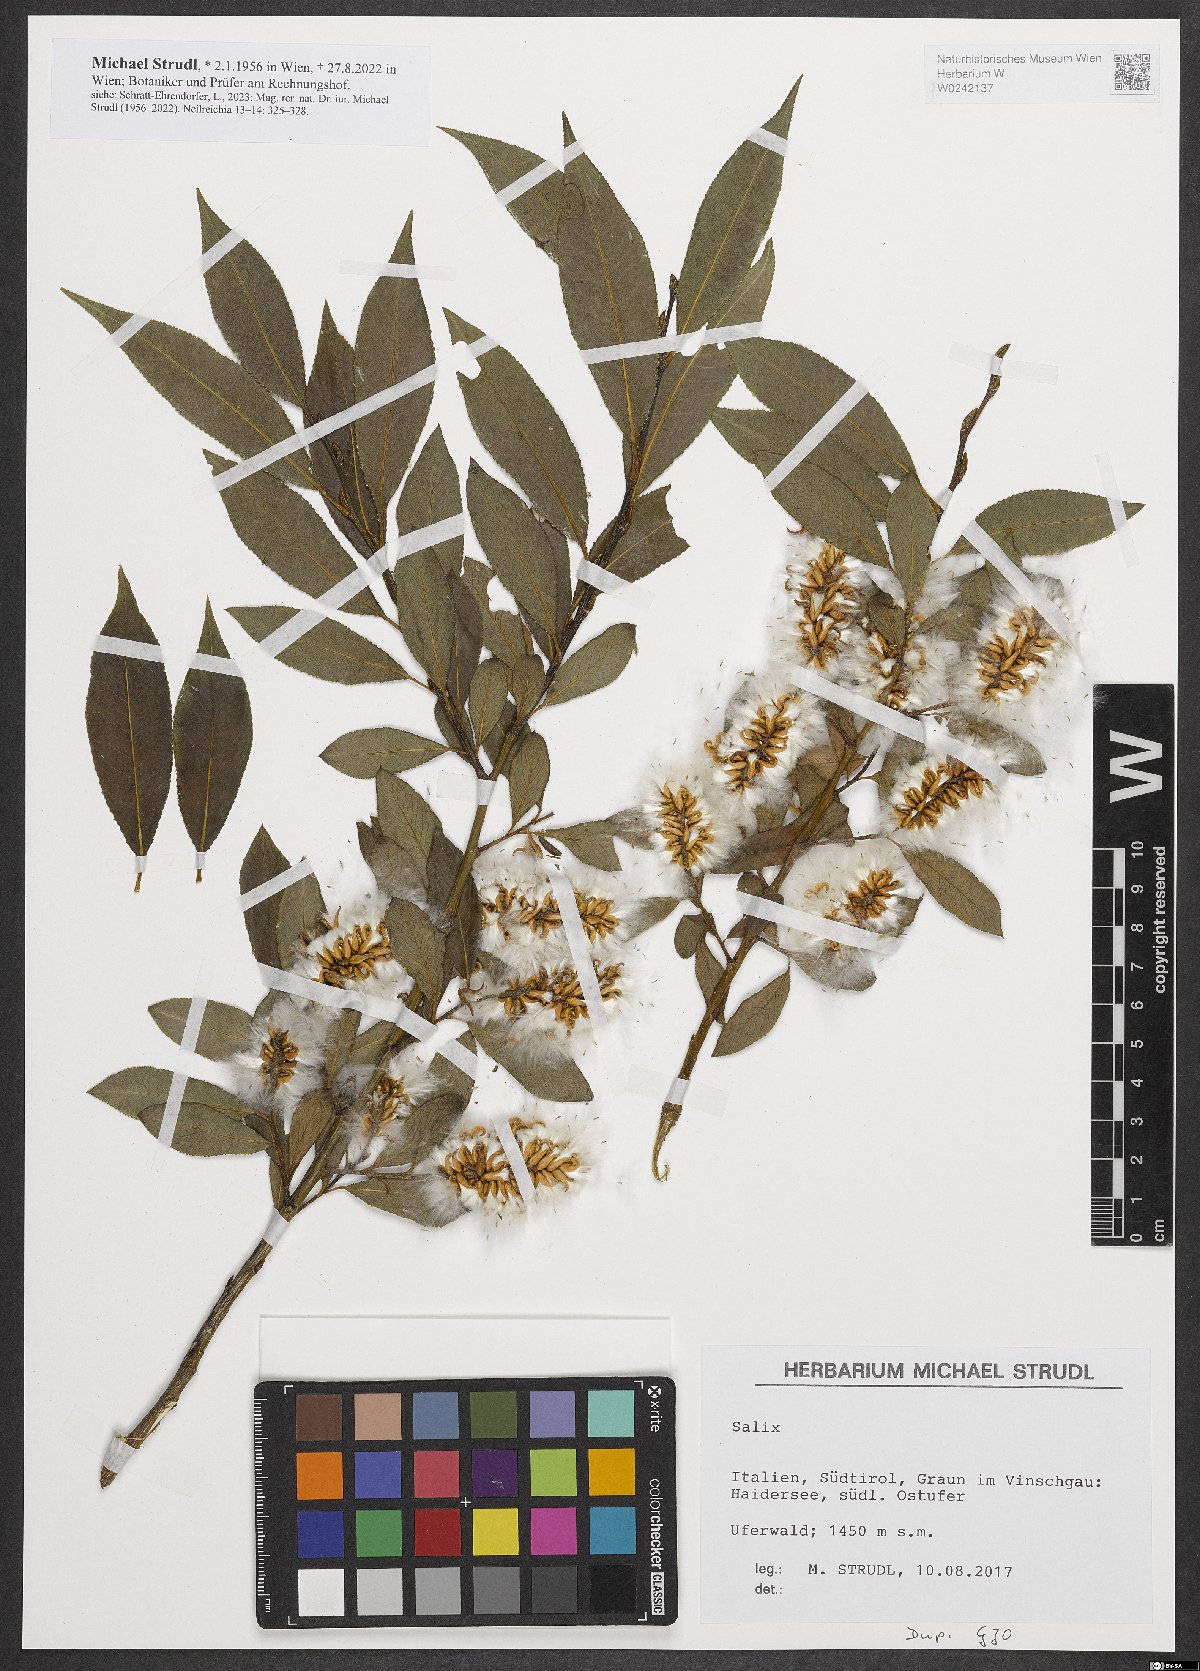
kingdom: Plantae
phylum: Tracheophyta
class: Magnoliopsida
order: Malpighiales
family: Salicaceae
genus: Salix
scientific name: Salix
